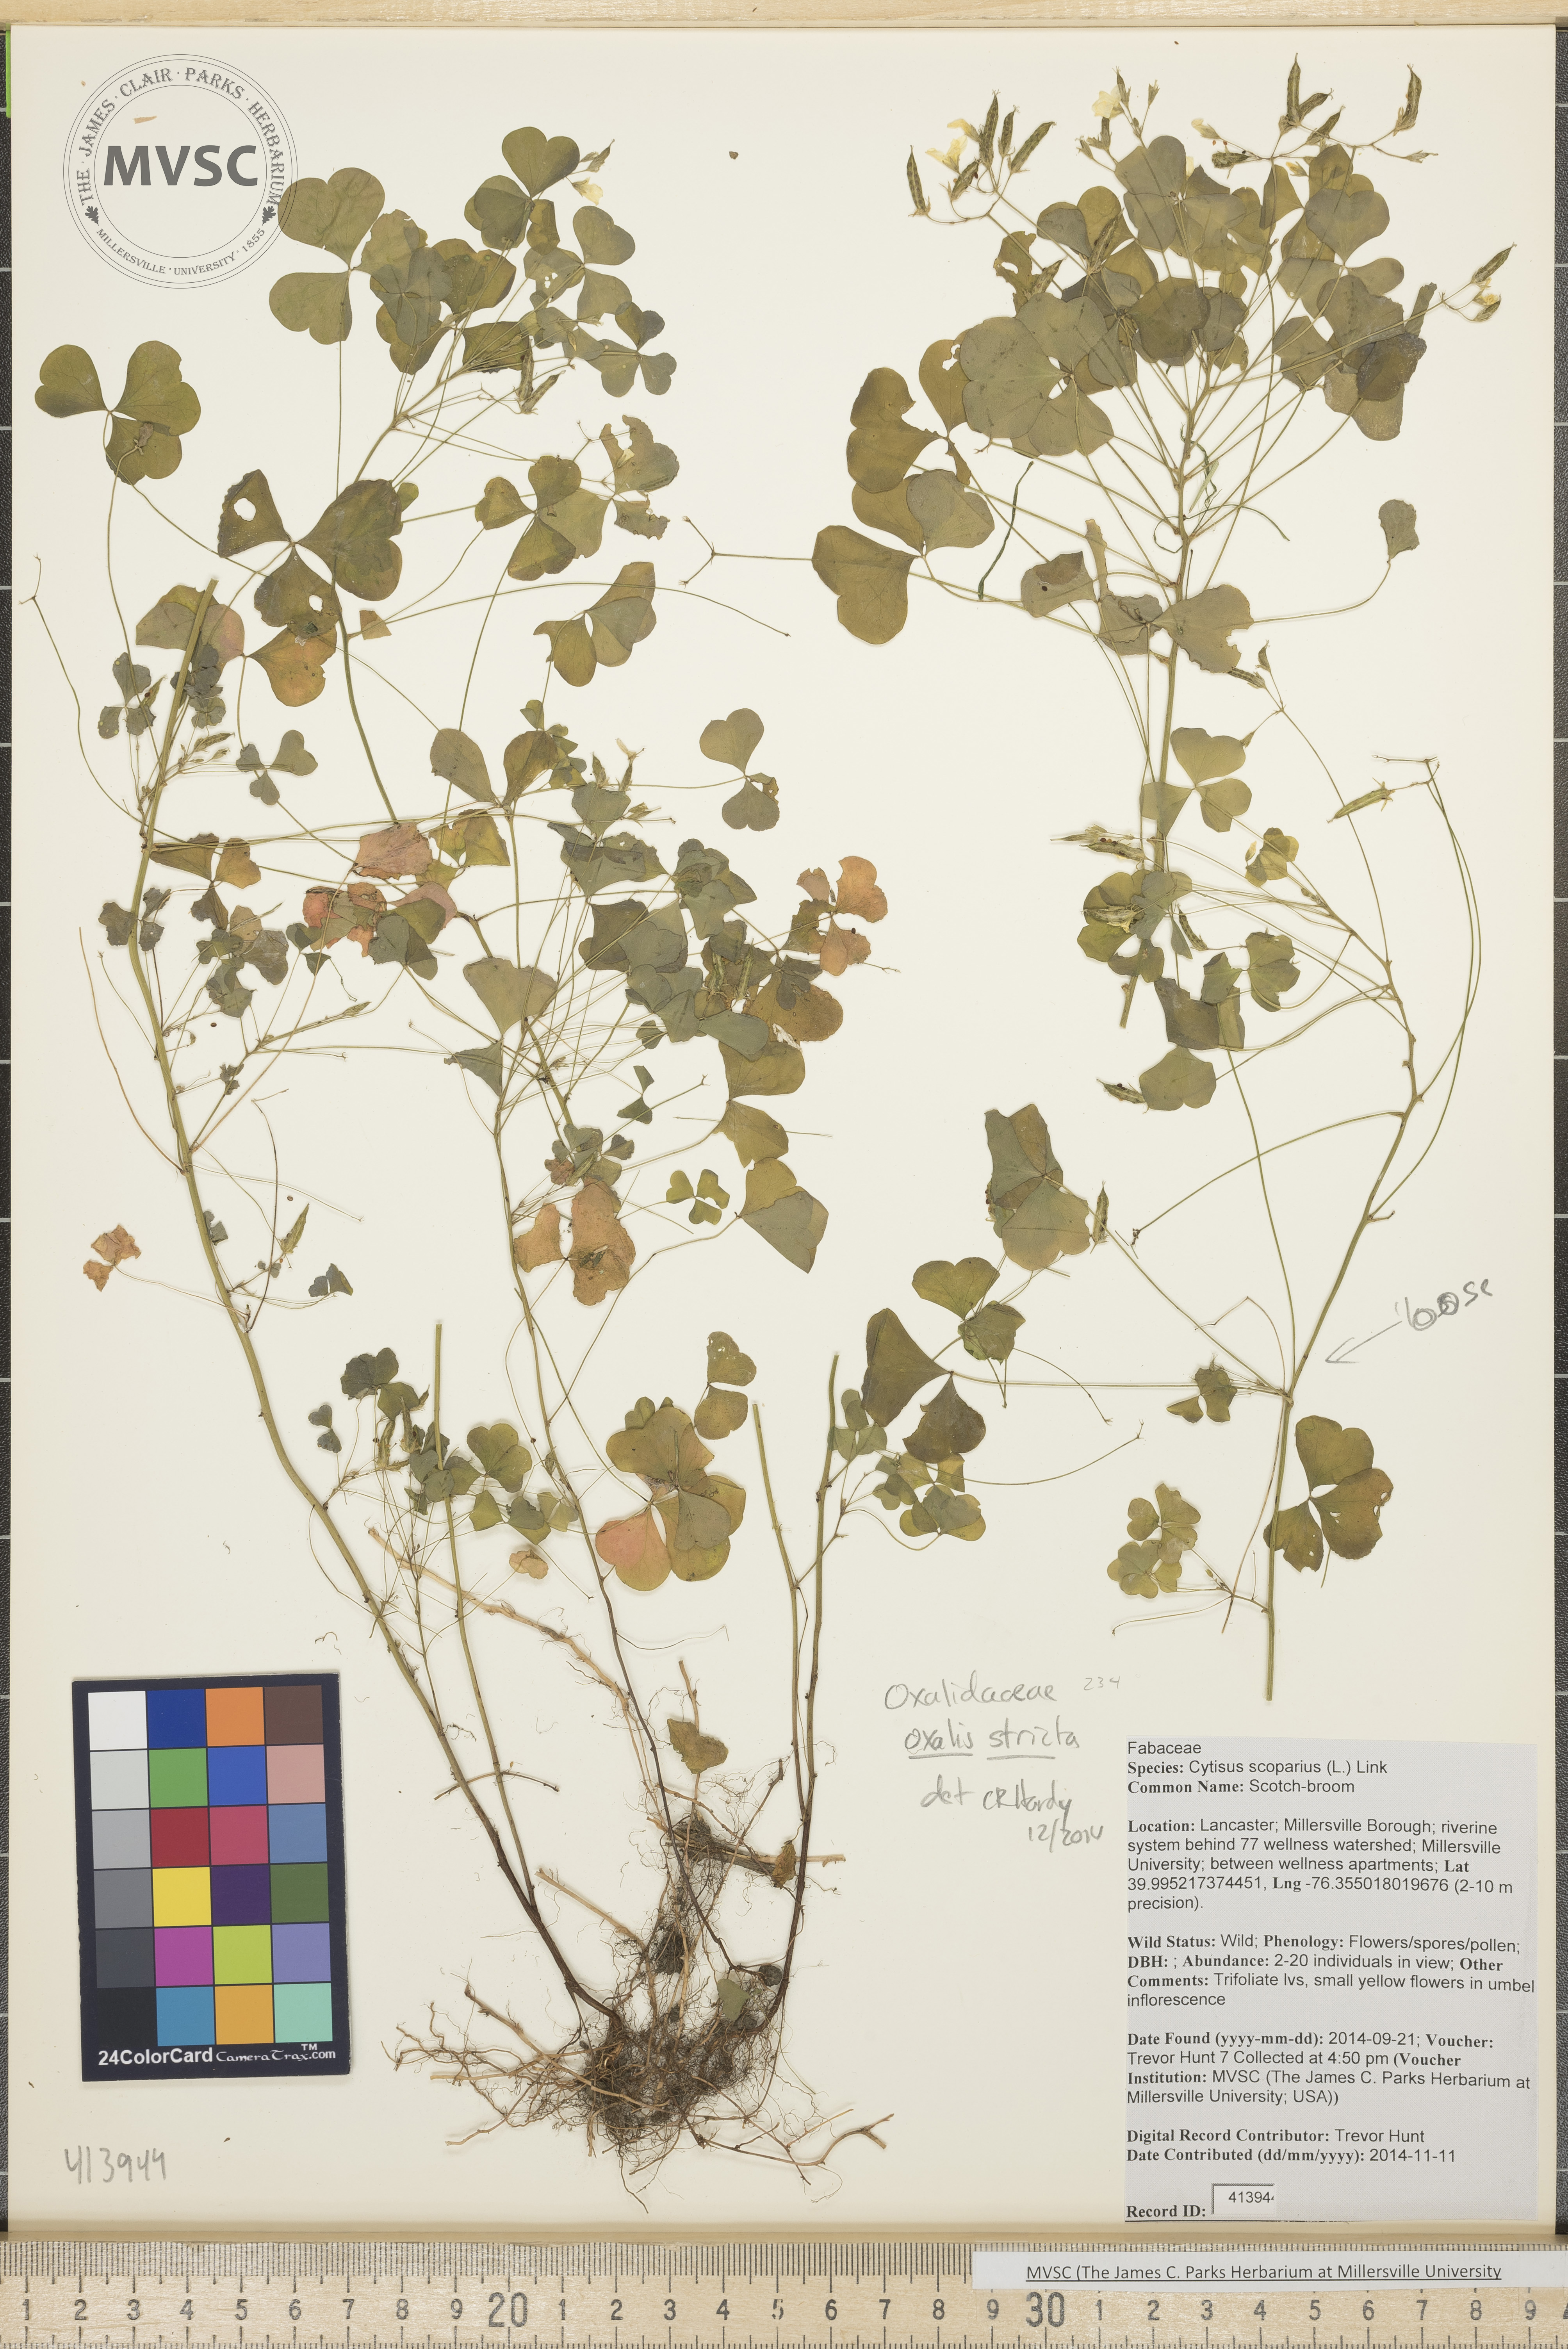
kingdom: Plantae
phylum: Tracheophyta
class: Magnoliopsida
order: Oxalidales
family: Oxalidaceae
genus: Oxalis
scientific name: Oxalis stricta
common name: Yellow wood-sorrel
